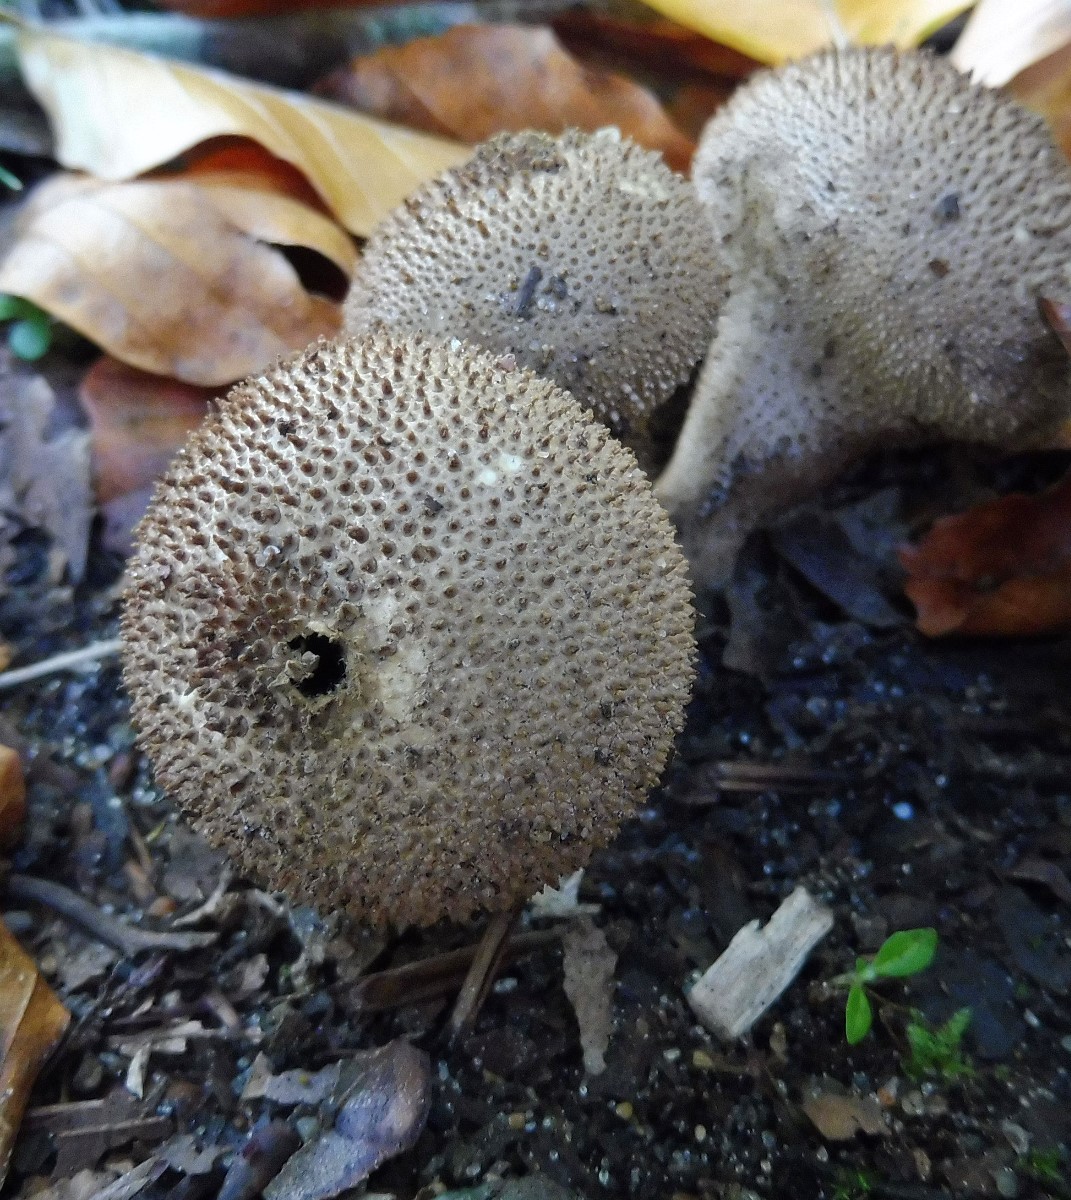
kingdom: Fungi
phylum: Basidiomycota
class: Agaricomycetes
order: Agaricales
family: Lycoperdaceae
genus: Lycoperdon
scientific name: Lycoperdon nigrescens
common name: sortagtig støvbold
